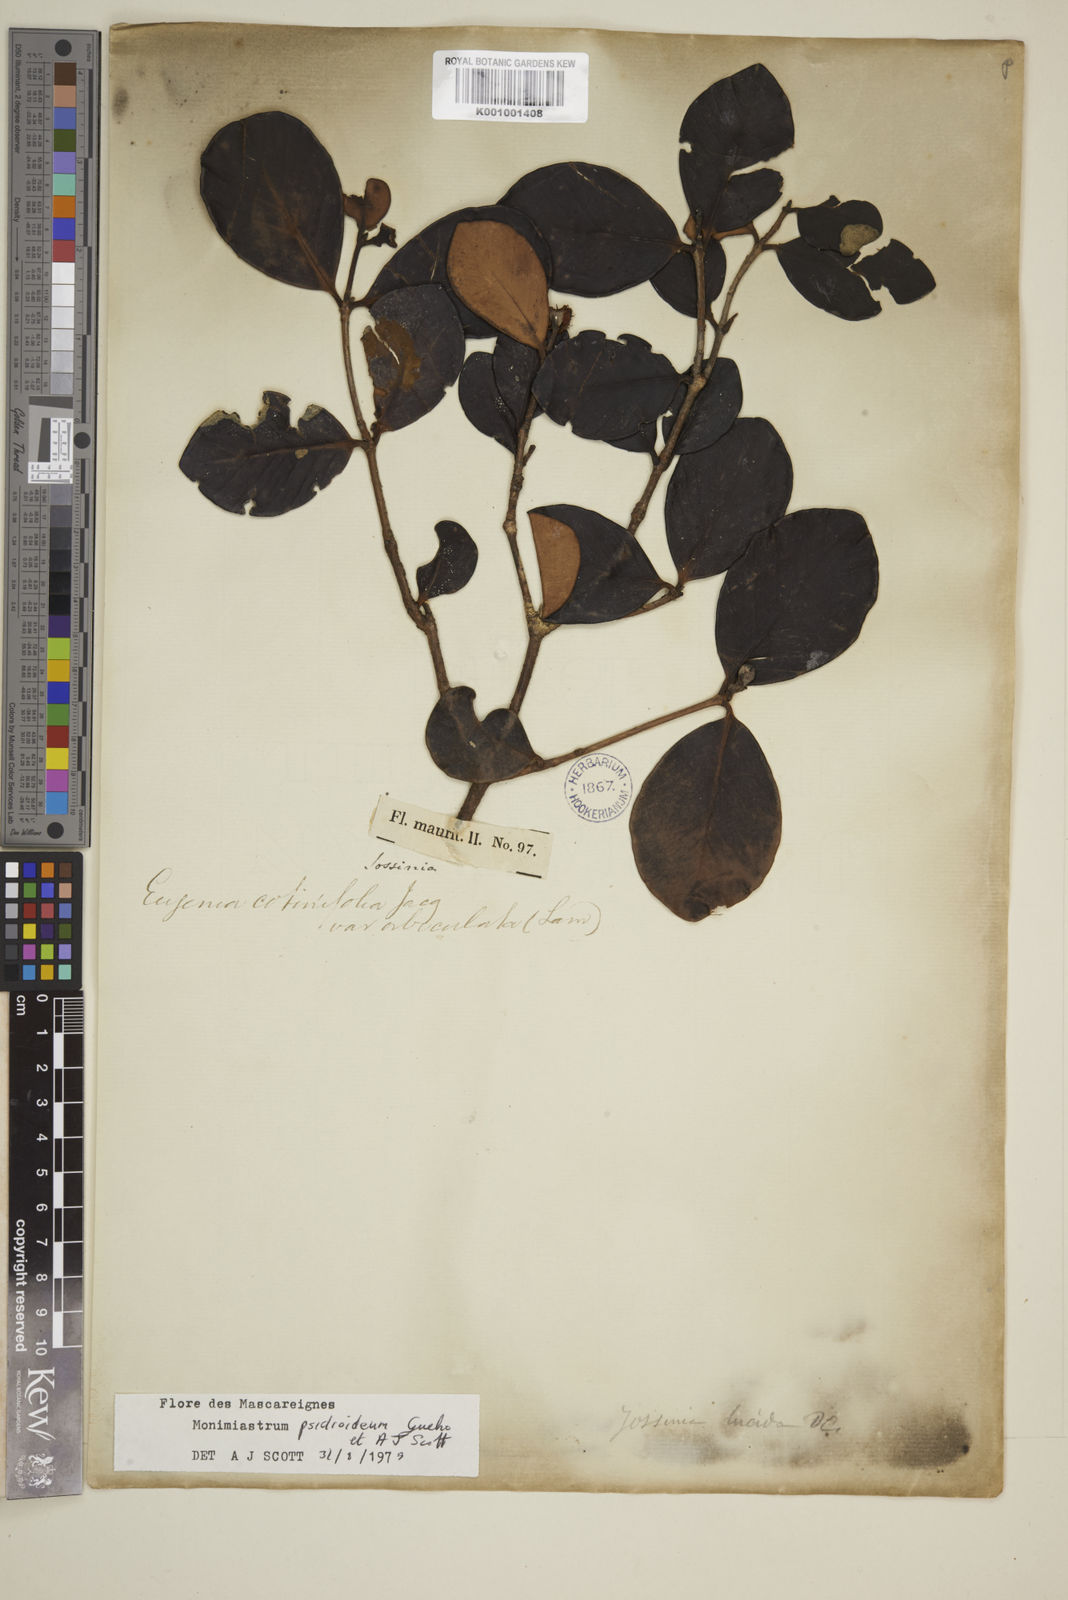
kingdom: Plantae
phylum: Tracheophyta
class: Magnoliopsida
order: Myrtales
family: Myrtaceae
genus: Eugenia
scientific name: Eugenia psidioidea
